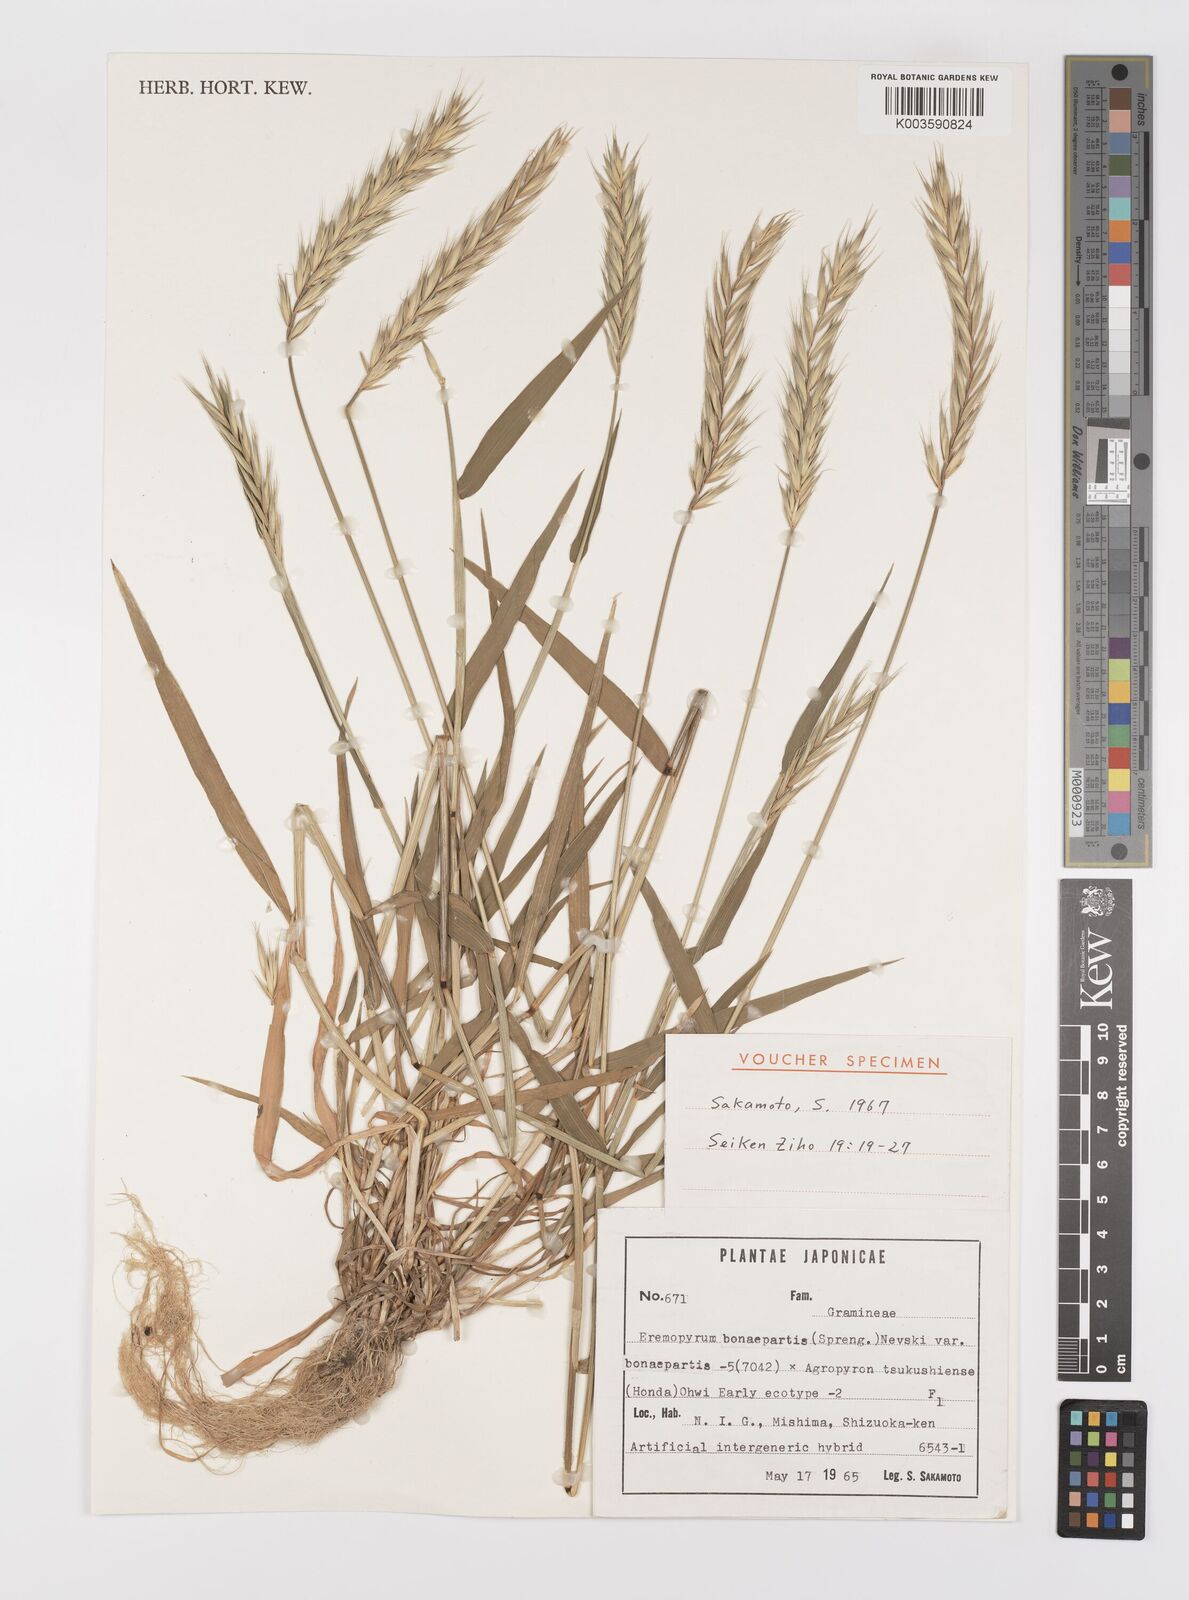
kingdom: Plantae
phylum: Tracheophyta
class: Liliopsida
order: Poales
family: Poaceae
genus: Elyhordeum
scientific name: Elyhordeum
